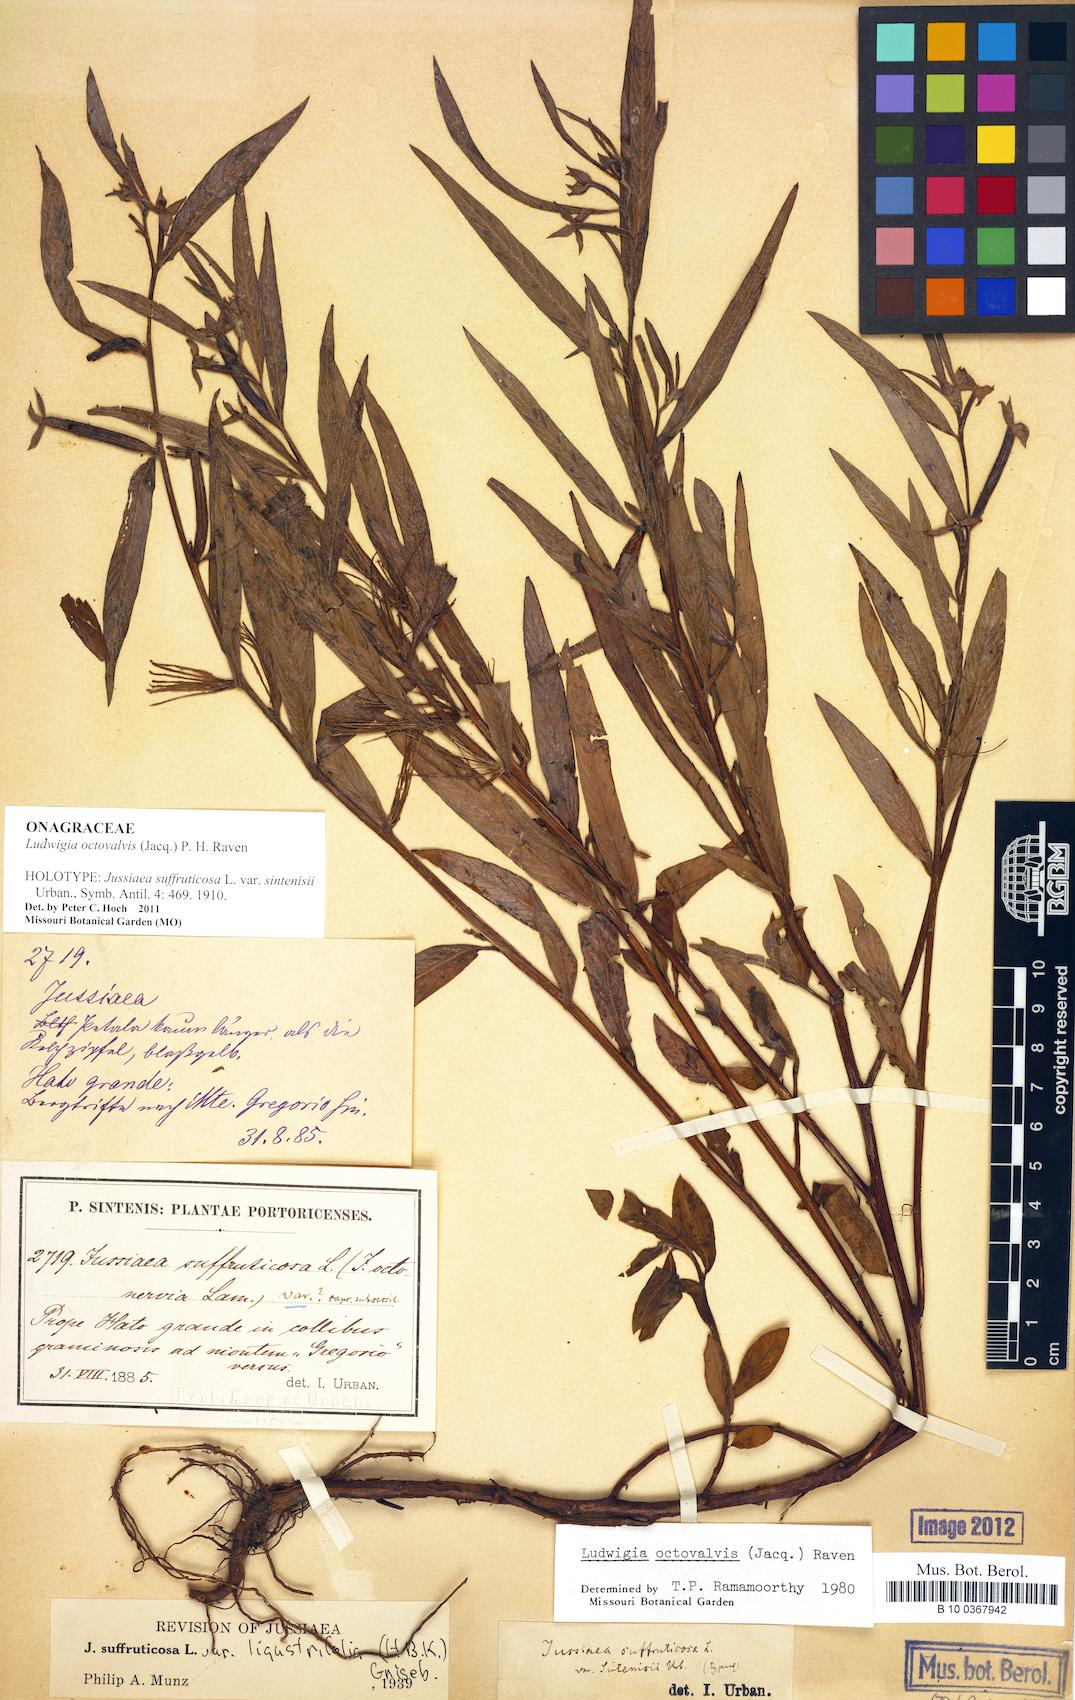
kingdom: Plantae
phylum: Tracheophyta
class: Magnoliopsida
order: Myrtales
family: Onagraceae
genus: Ludwigia
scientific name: Ludwigia octovalvis
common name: Water-primrose
